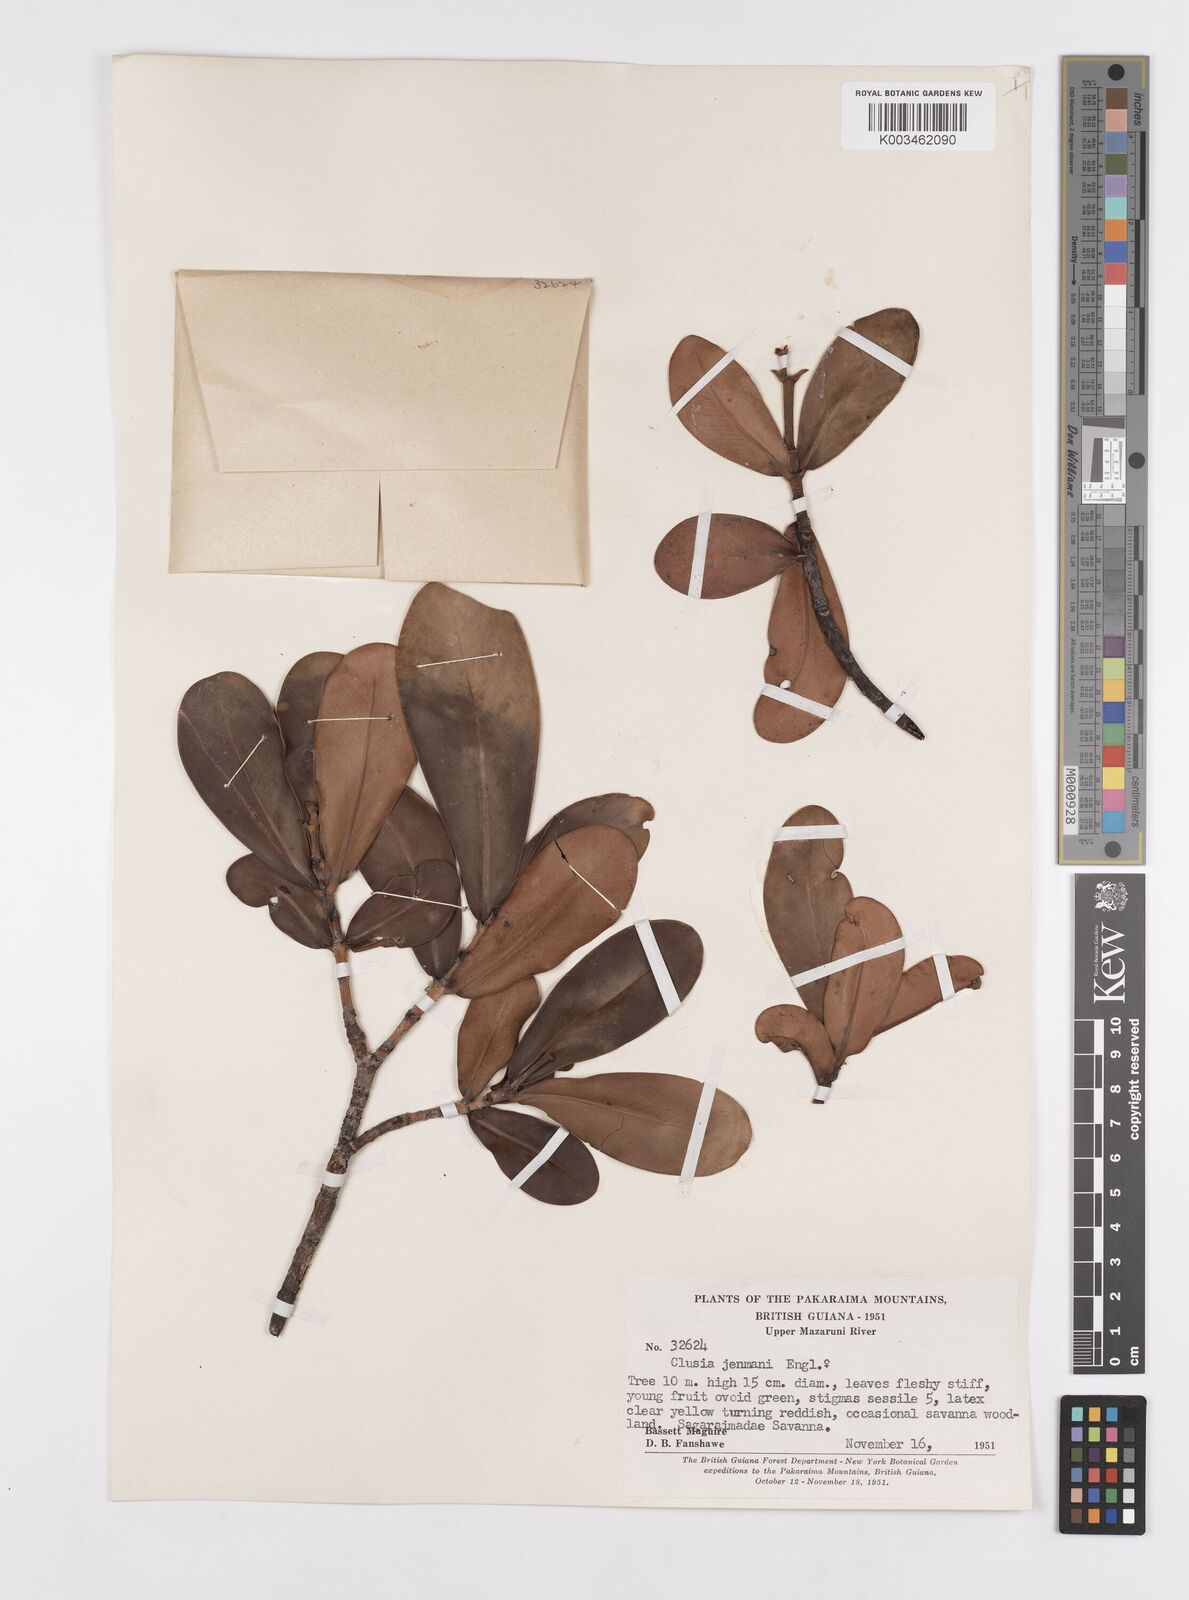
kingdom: Plantae
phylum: Tracheophyta
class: Magnoliopsida
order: Malpighiales
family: Clusiaceae
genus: Clusia
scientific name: Clusia myriandra
